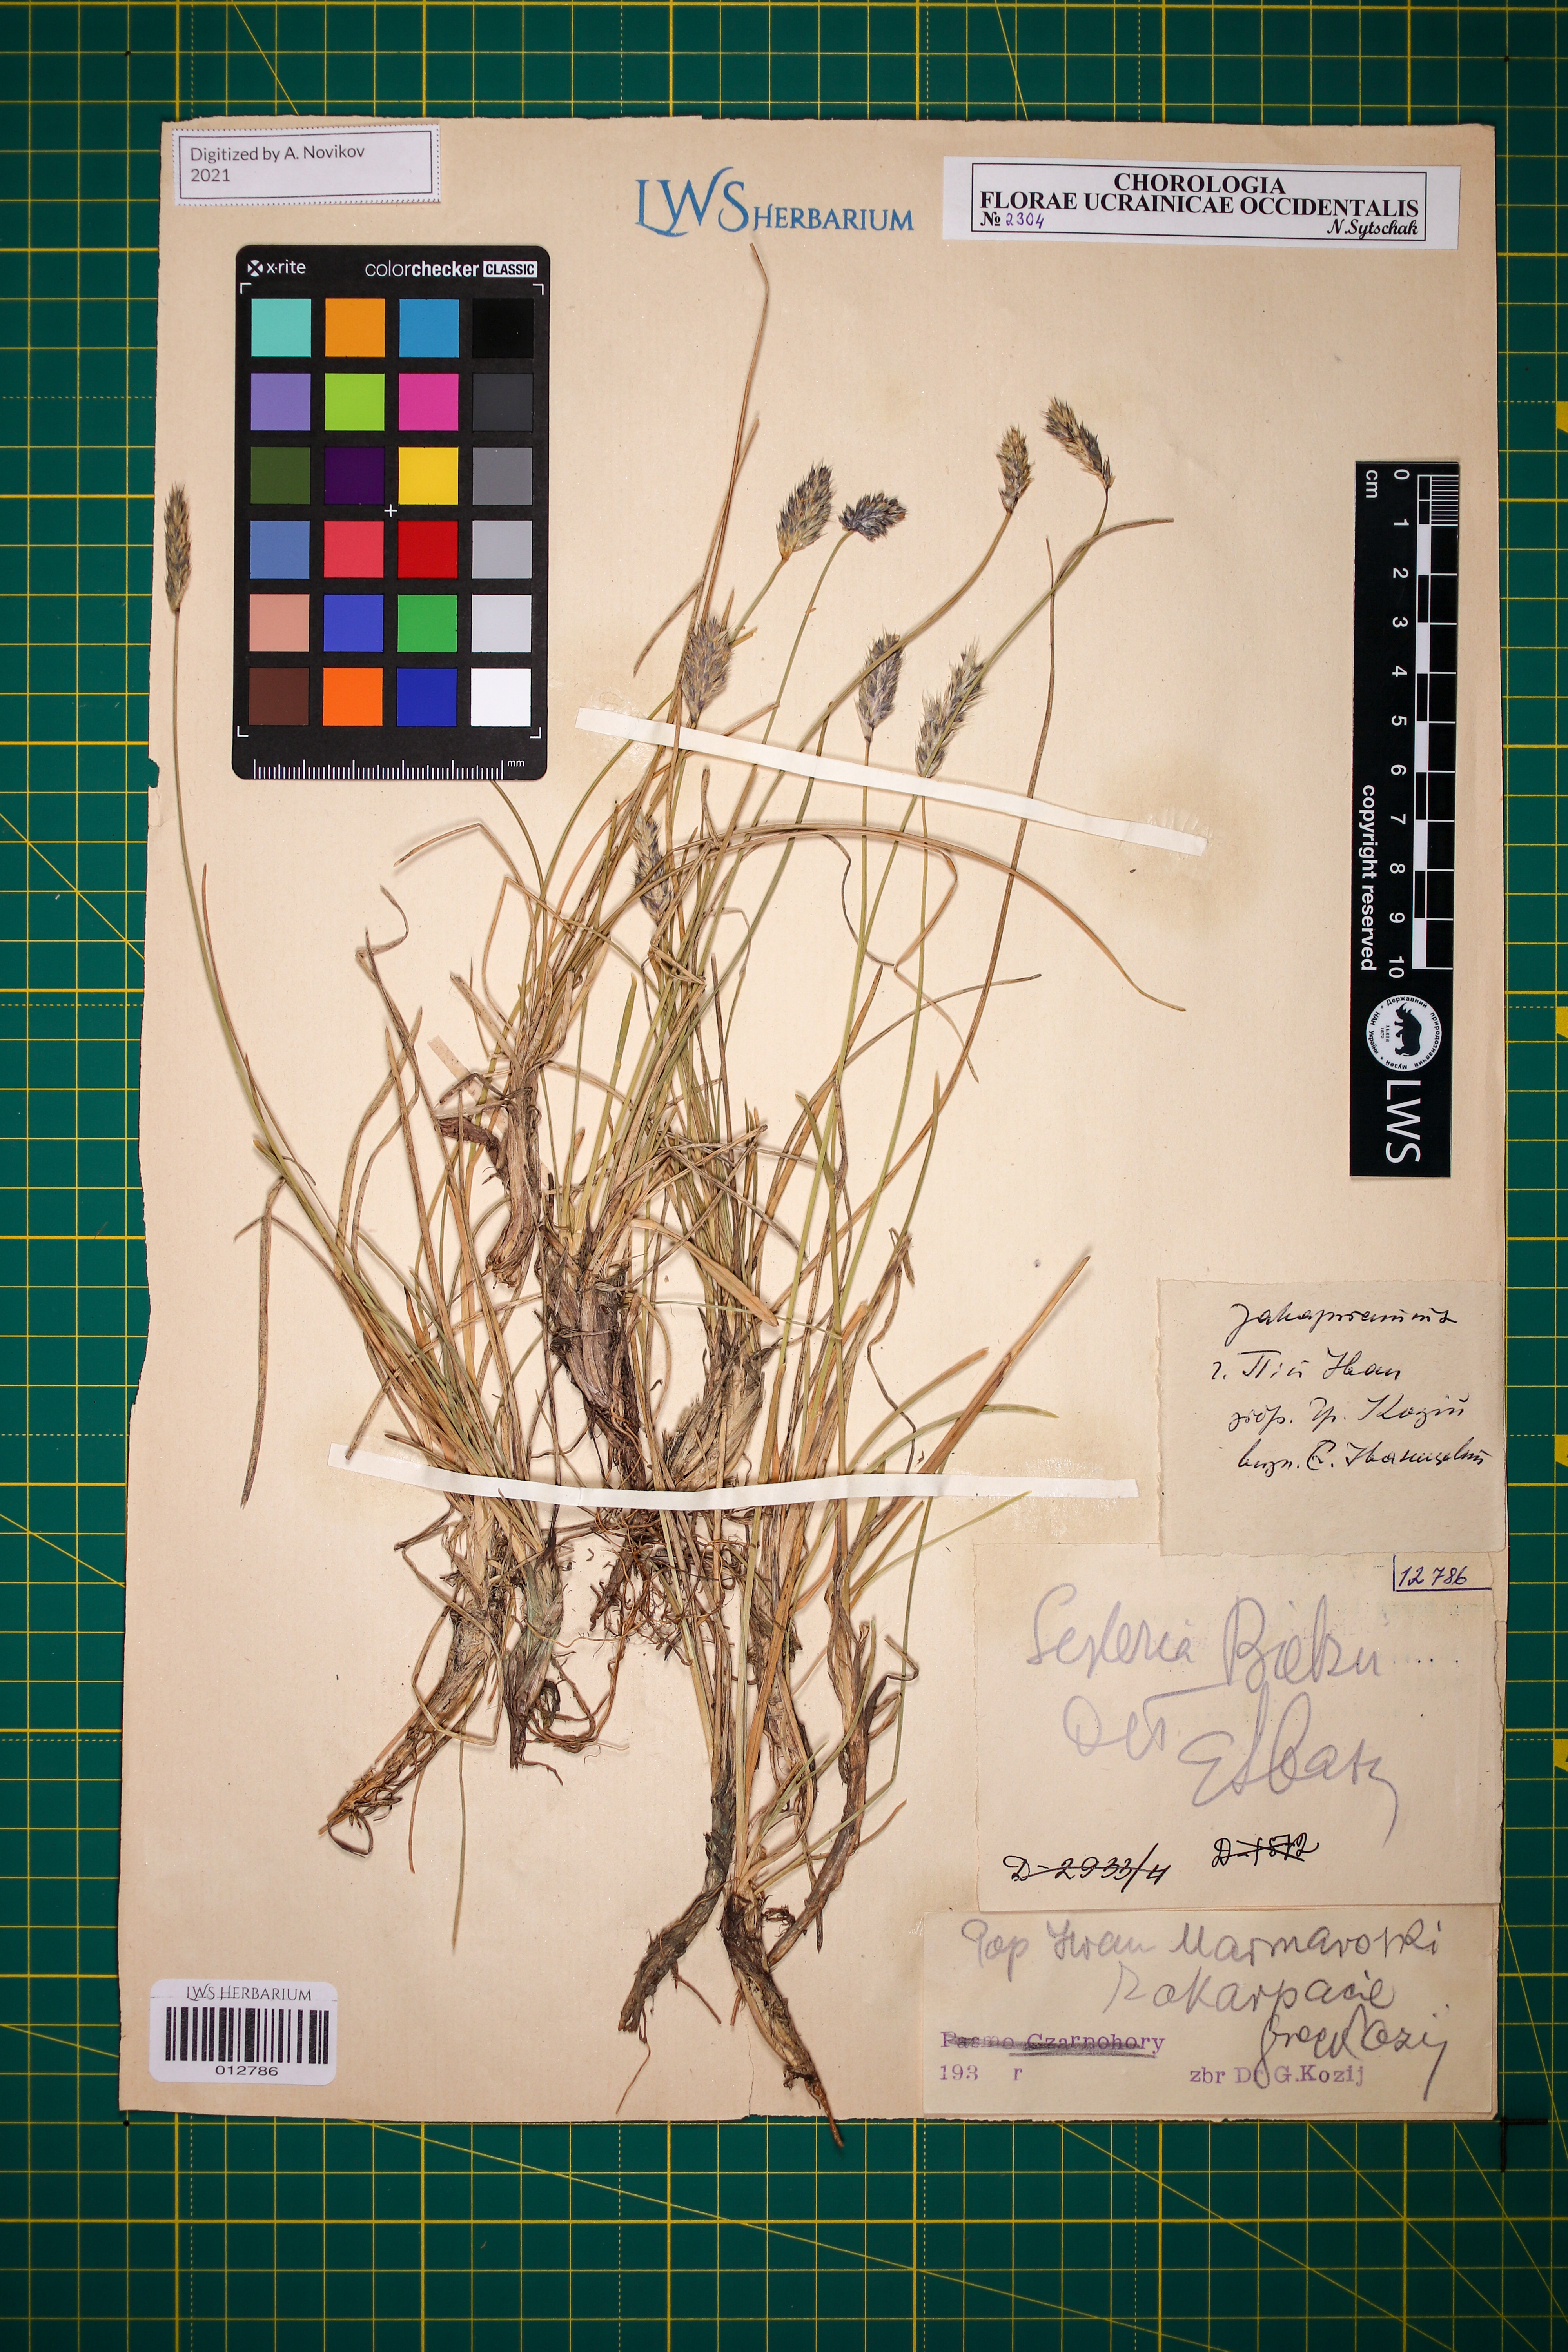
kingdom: Plantae
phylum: Tracheophyta
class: Liliopsida
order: Poales
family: Poaceae
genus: Sesleria
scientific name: Sesleria bielzii
